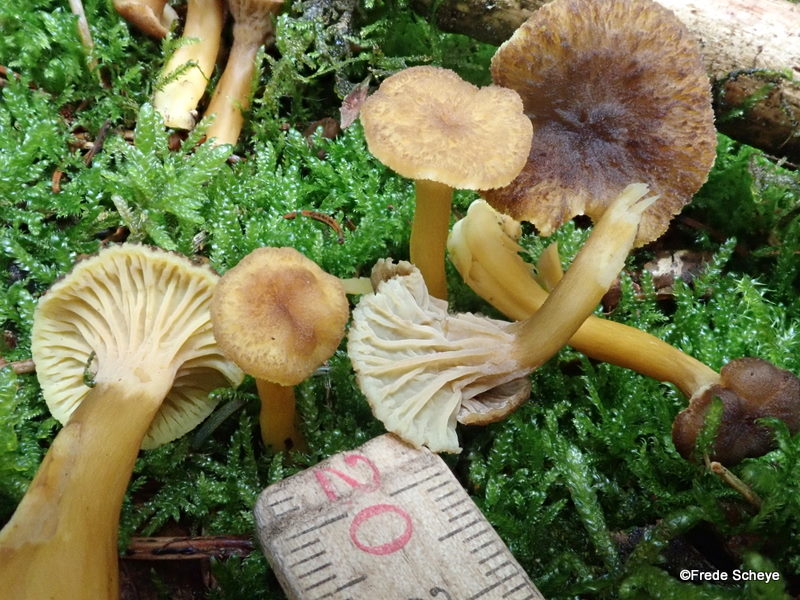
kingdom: Fungi
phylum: Basidiomycota
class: Agaricomycetes
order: Cantharellales
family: Hydnaceae
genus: Craterellus
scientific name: Craterellus tubaeformis
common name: tragt-kantarel
